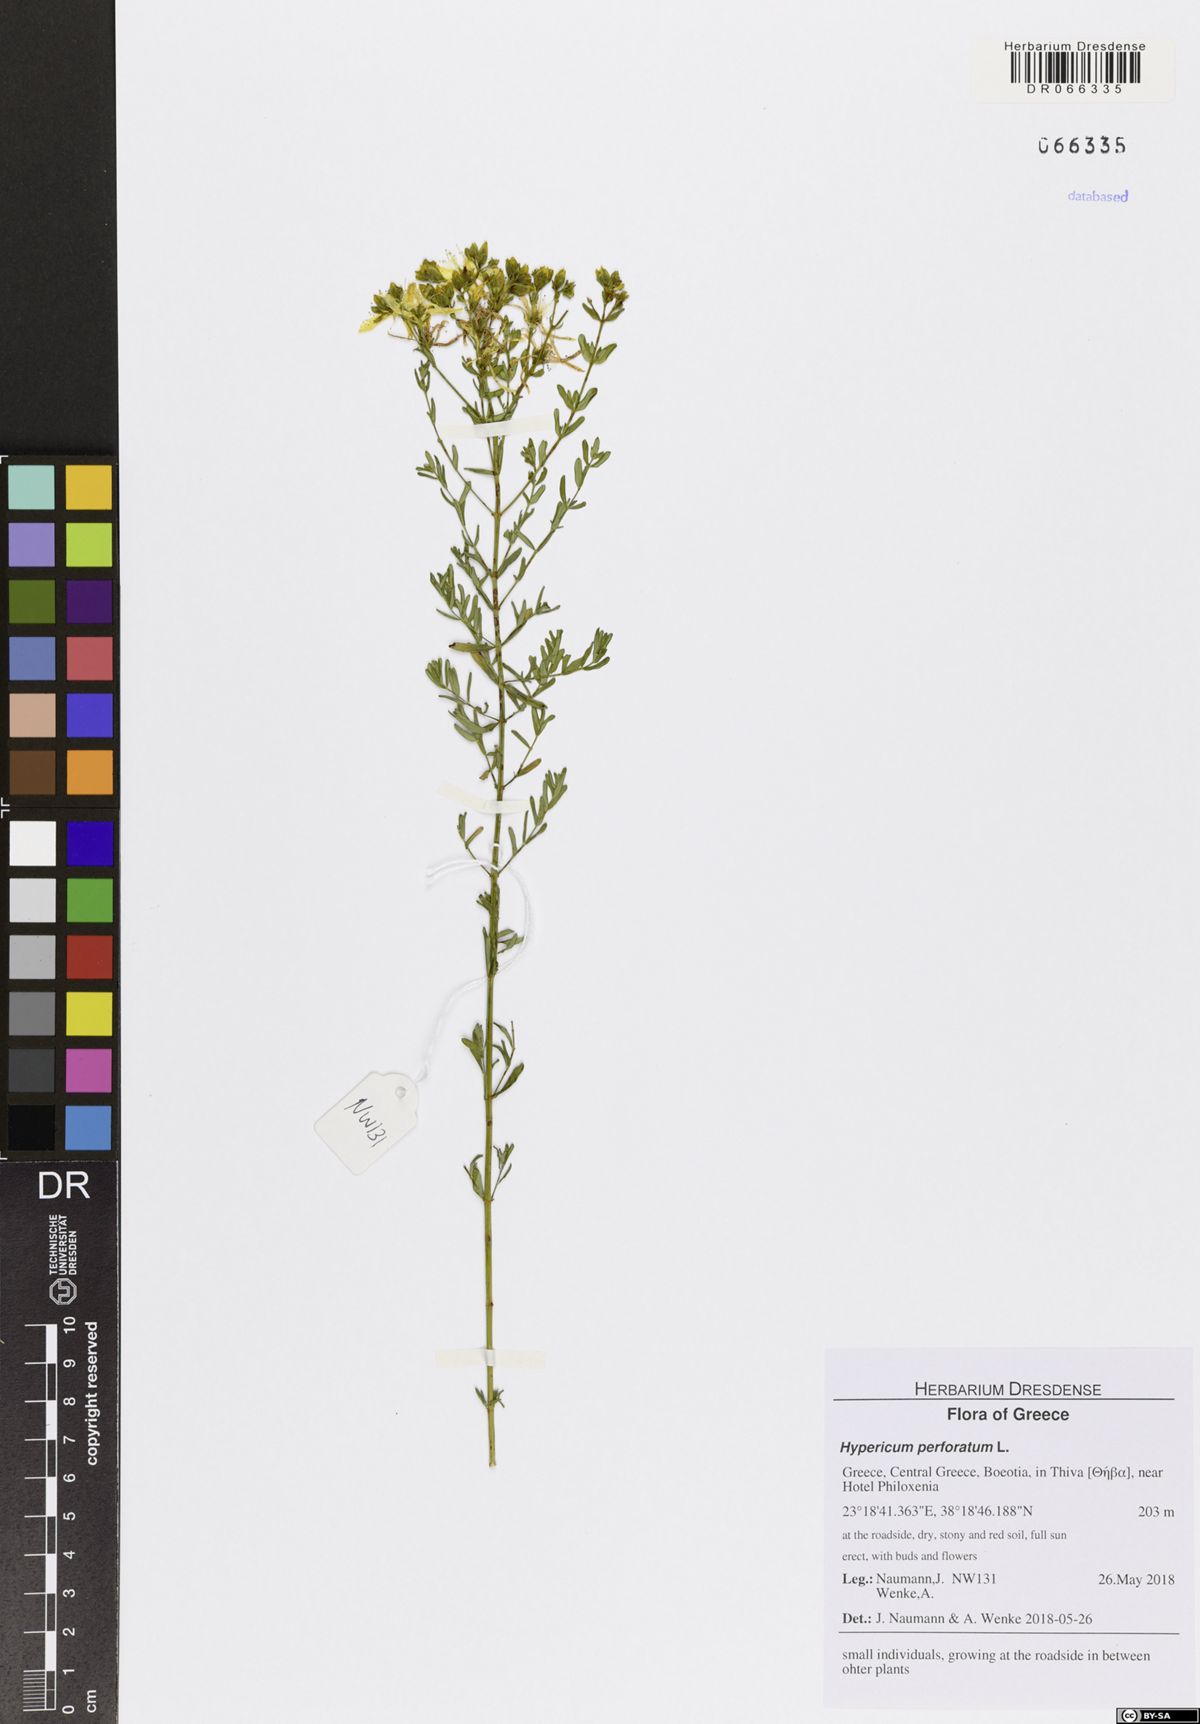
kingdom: Plantae
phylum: Tracheophyta
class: Magnoliopsida
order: Malpighiales
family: Hypericaceae
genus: Hypericum
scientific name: Hypericum perforatum
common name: Common st. johnswort
